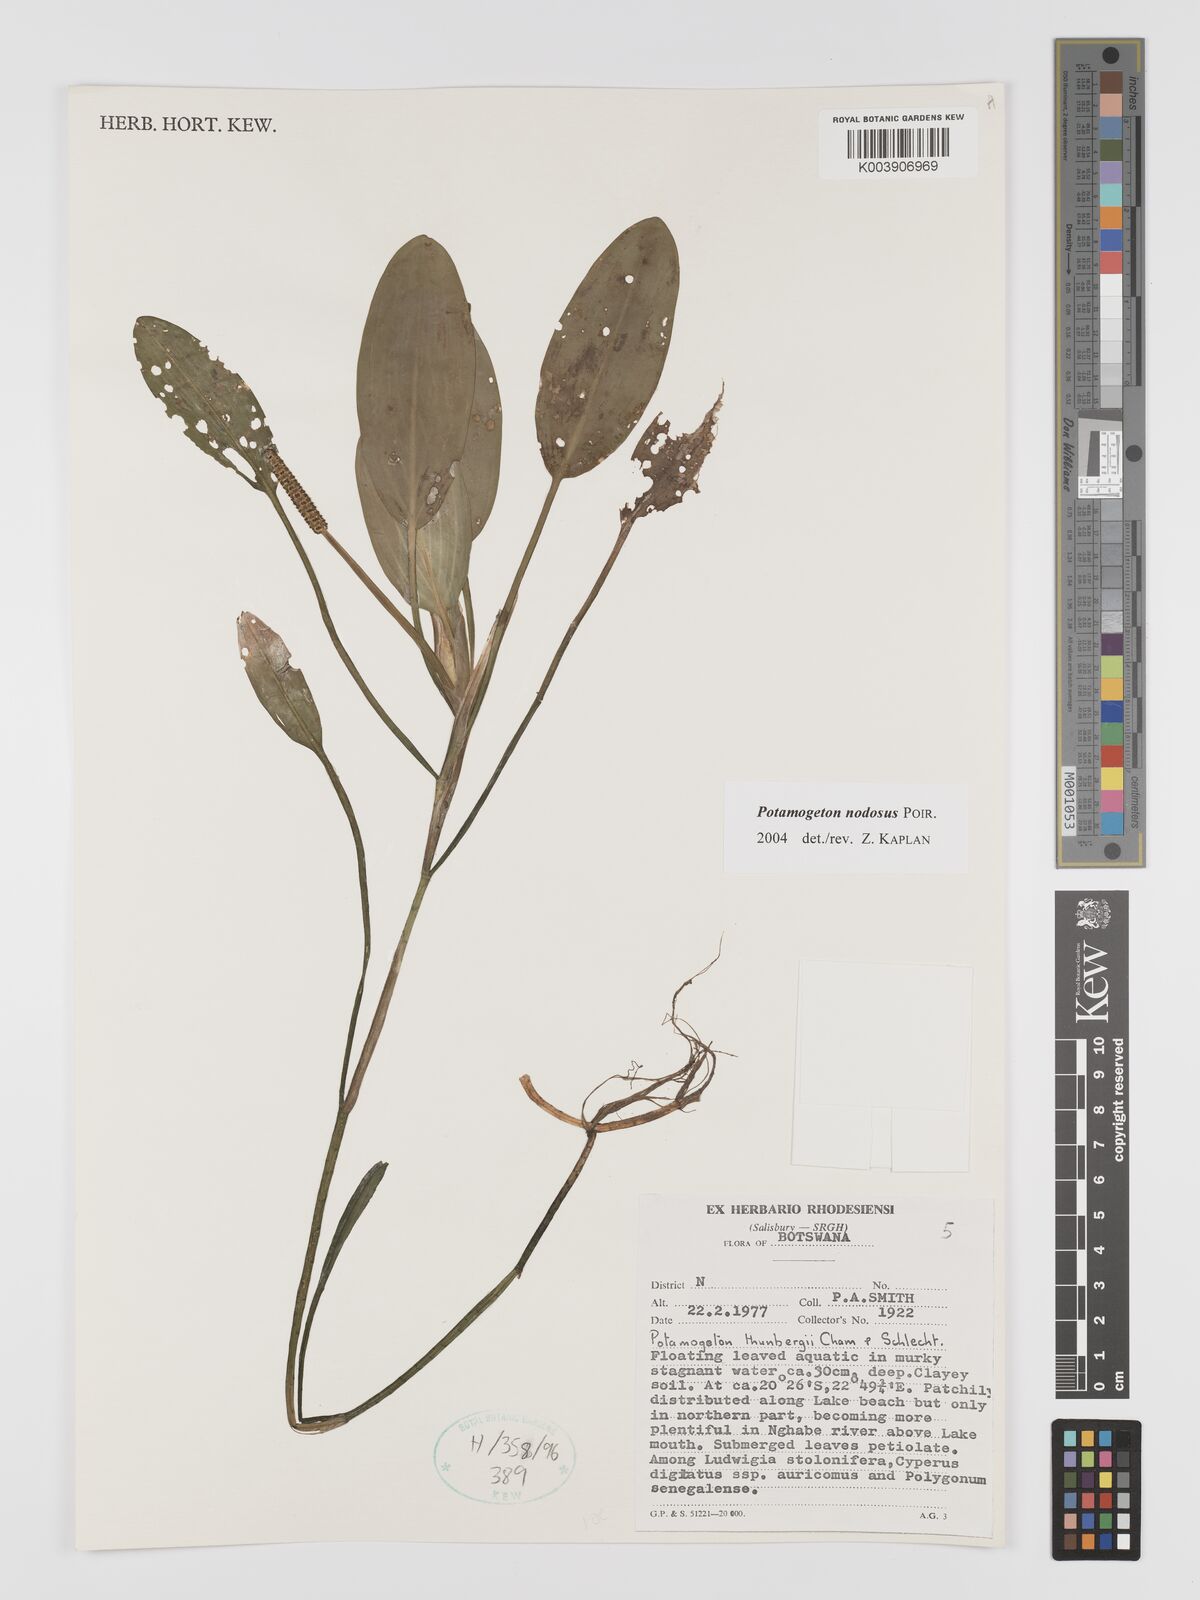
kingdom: Plantae
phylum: Tracheophyta
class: Liliopsida
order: Alismatales
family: Potamogetonaceae
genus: Potamogeton
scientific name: Potamogeton nodosus
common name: Loddon pondweed
